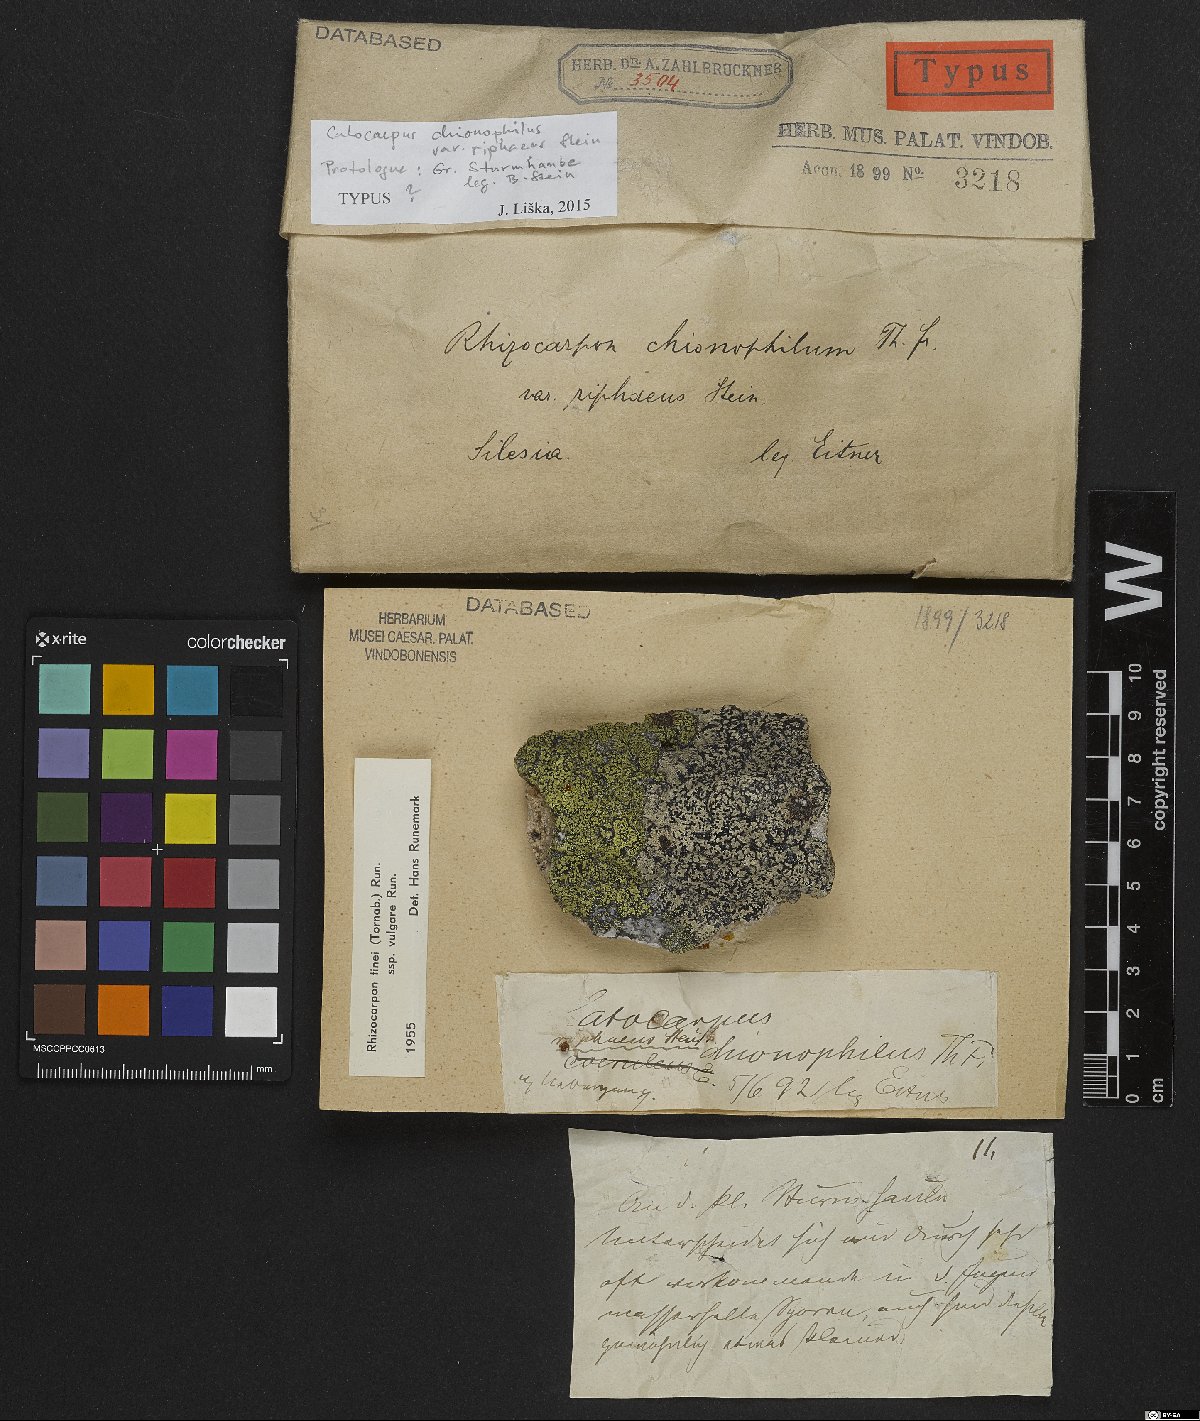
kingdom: Fungi
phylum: Ascomycota
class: Lecanoromycetes
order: Rhizocarpales
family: Rhizocarpaceae
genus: Rhizocarpon
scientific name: Rhizocarpon alpicola
